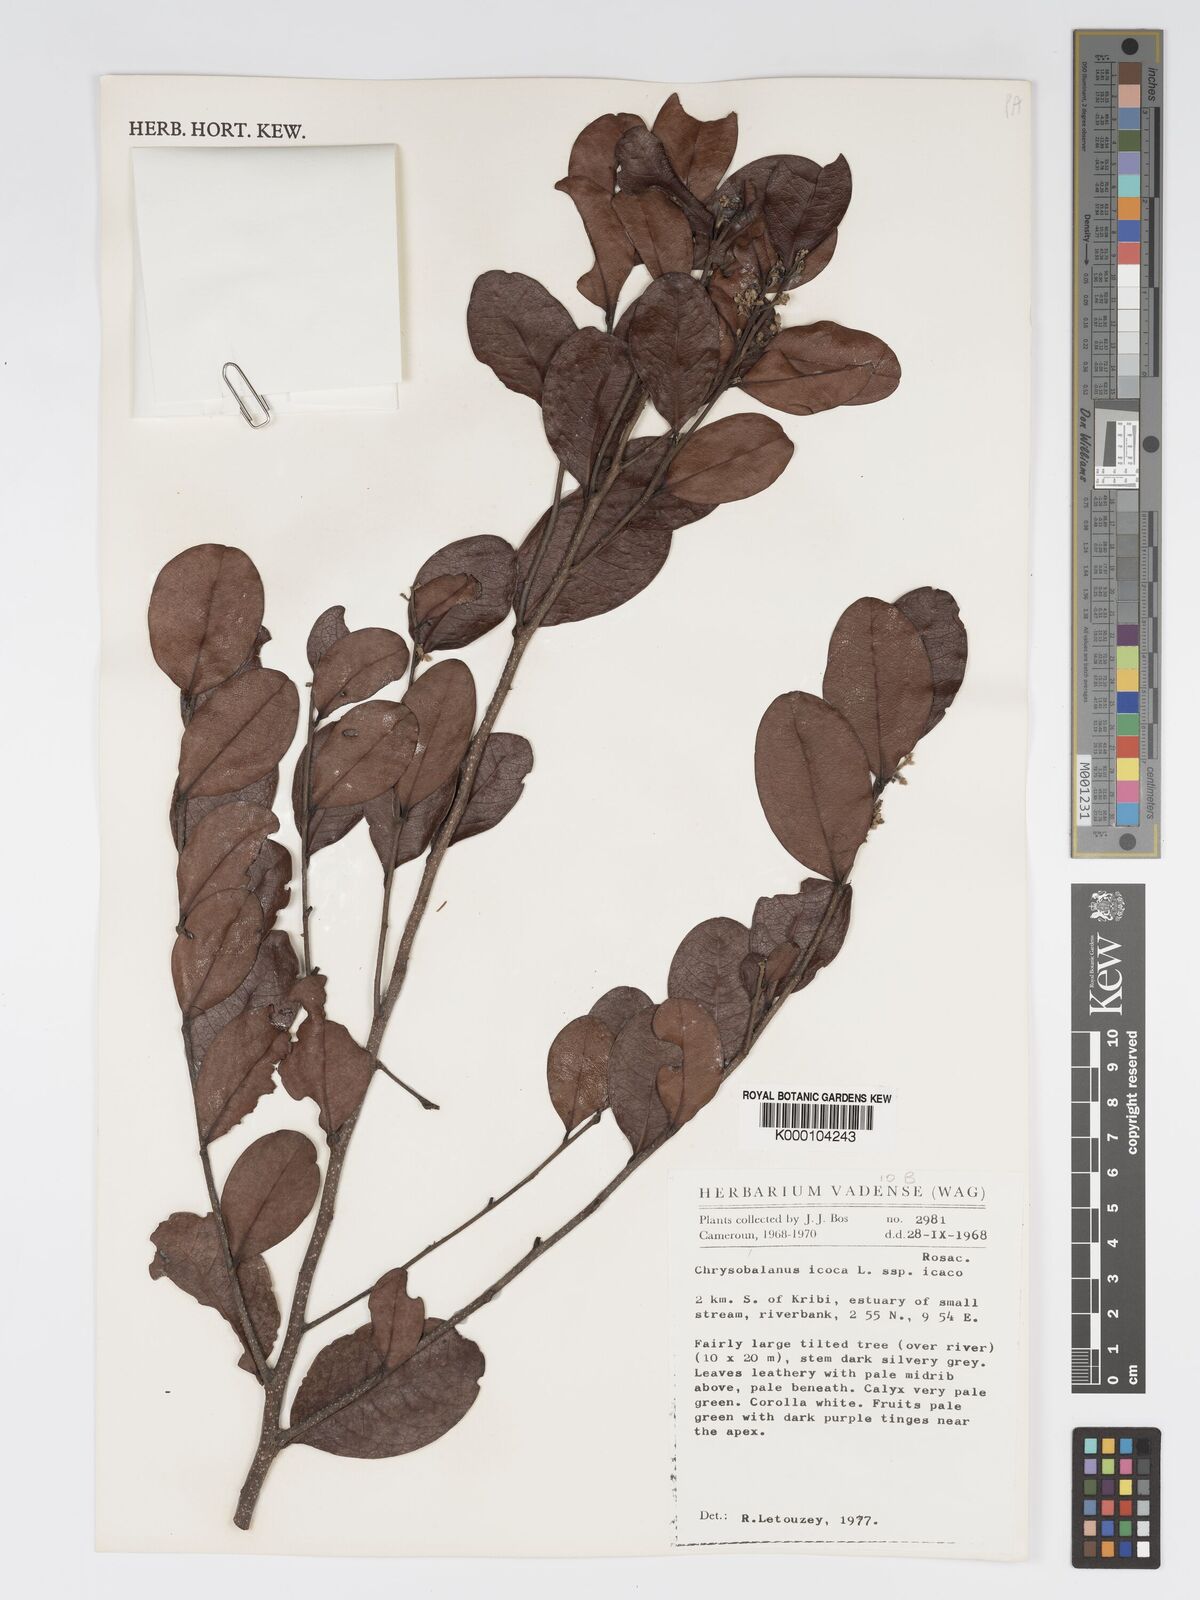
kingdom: Plantae
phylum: Tracheophyta
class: Magnoliopsida
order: Malpighiales
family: Chrysobalanaceae
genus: Chrysobalanus
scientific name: Chrysobalanus icaco
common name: Coco plum
